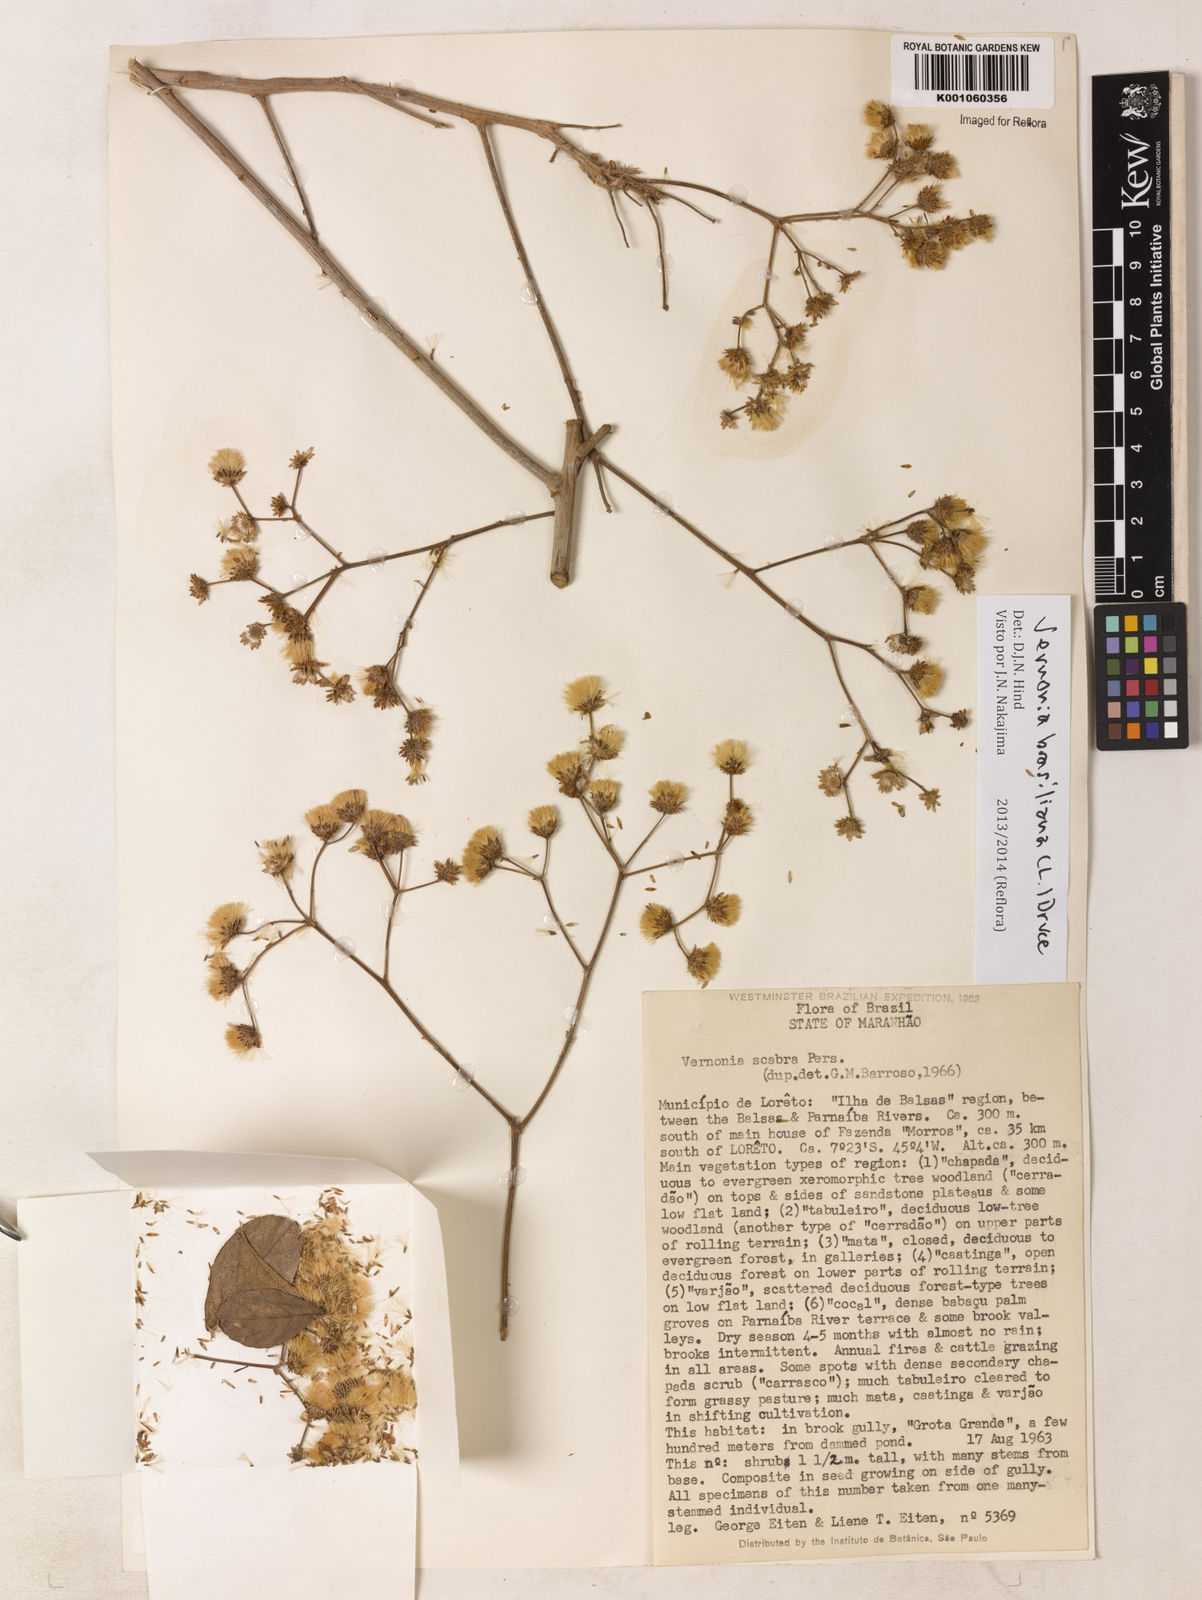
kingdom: Plantae
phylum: Tracheophyta
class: Magnoliopsida
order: Asterales
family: Asteraceae
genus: Vernonanthura
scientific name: Vernonanthura brasiliana
